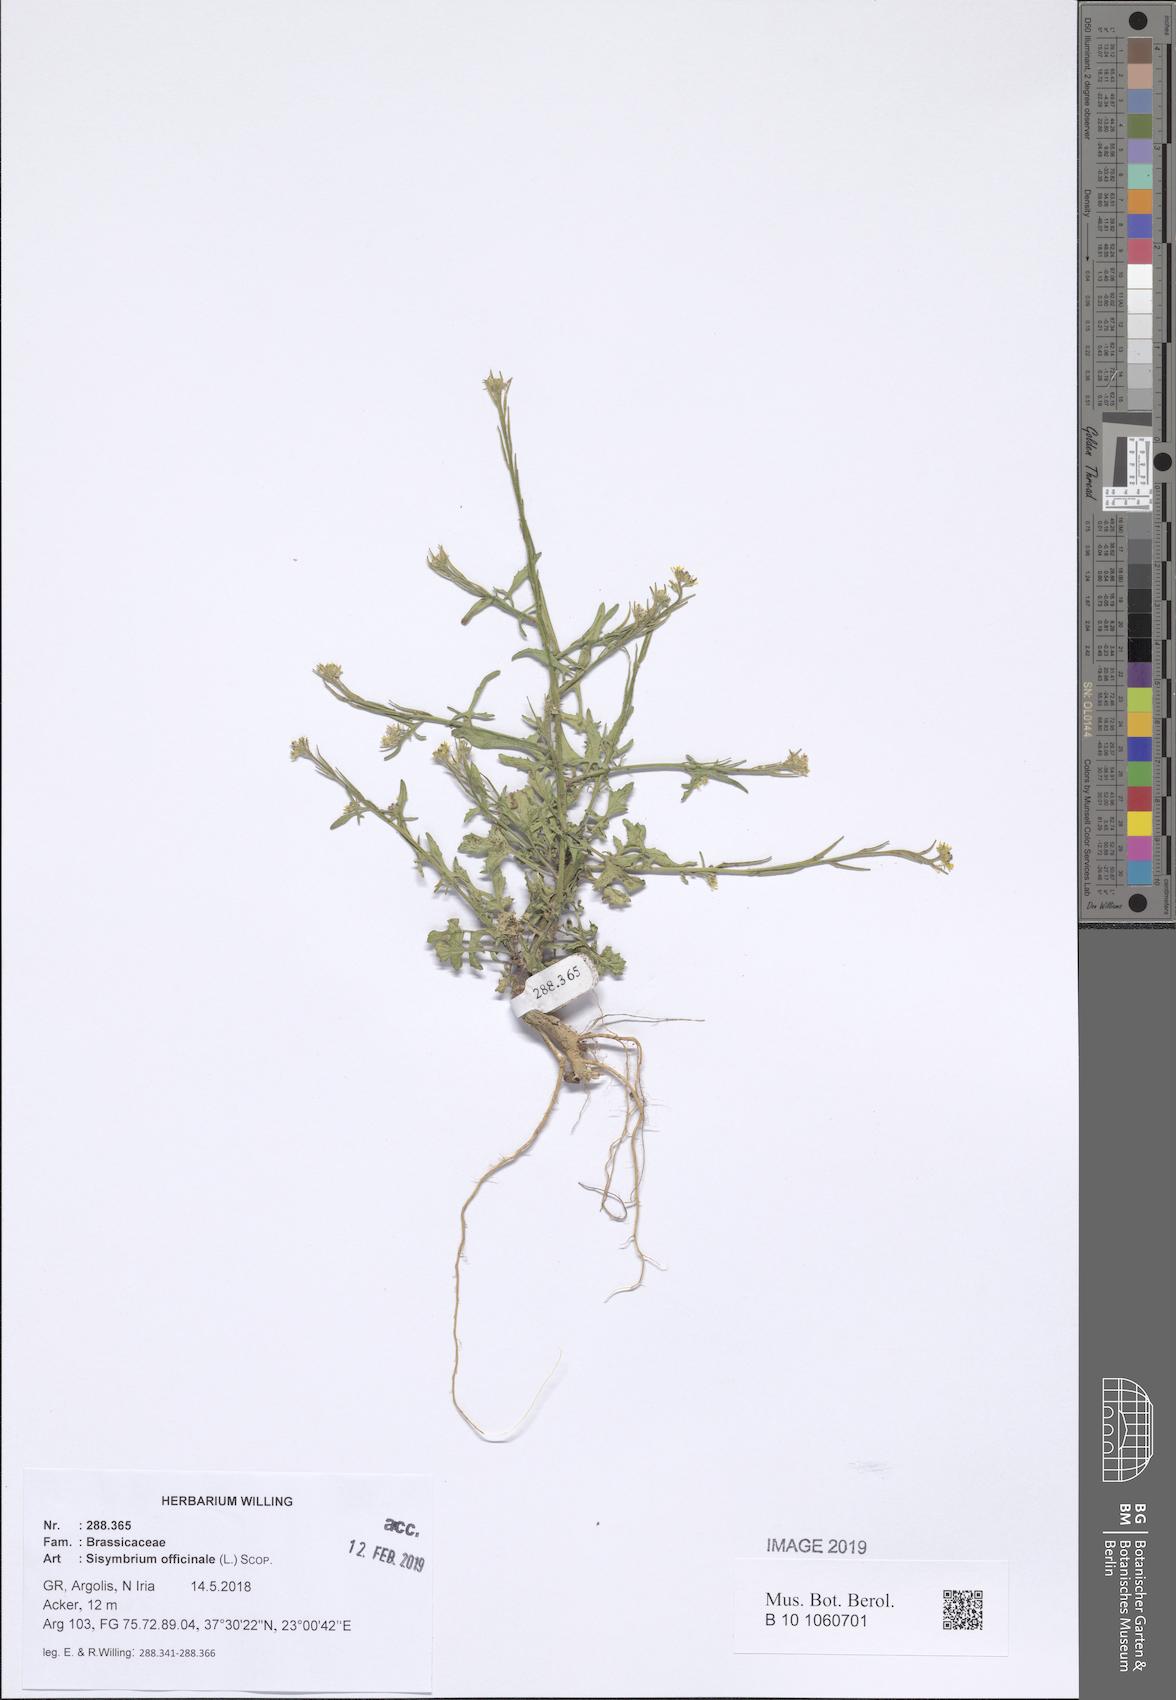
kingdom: Plantae
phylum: Tracheophyta
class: Magnoliopsida
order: Brassicales
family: Brassicaceae
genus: Sisymbrium
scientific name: Sisymbrium officinale
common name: Hedge mustard
